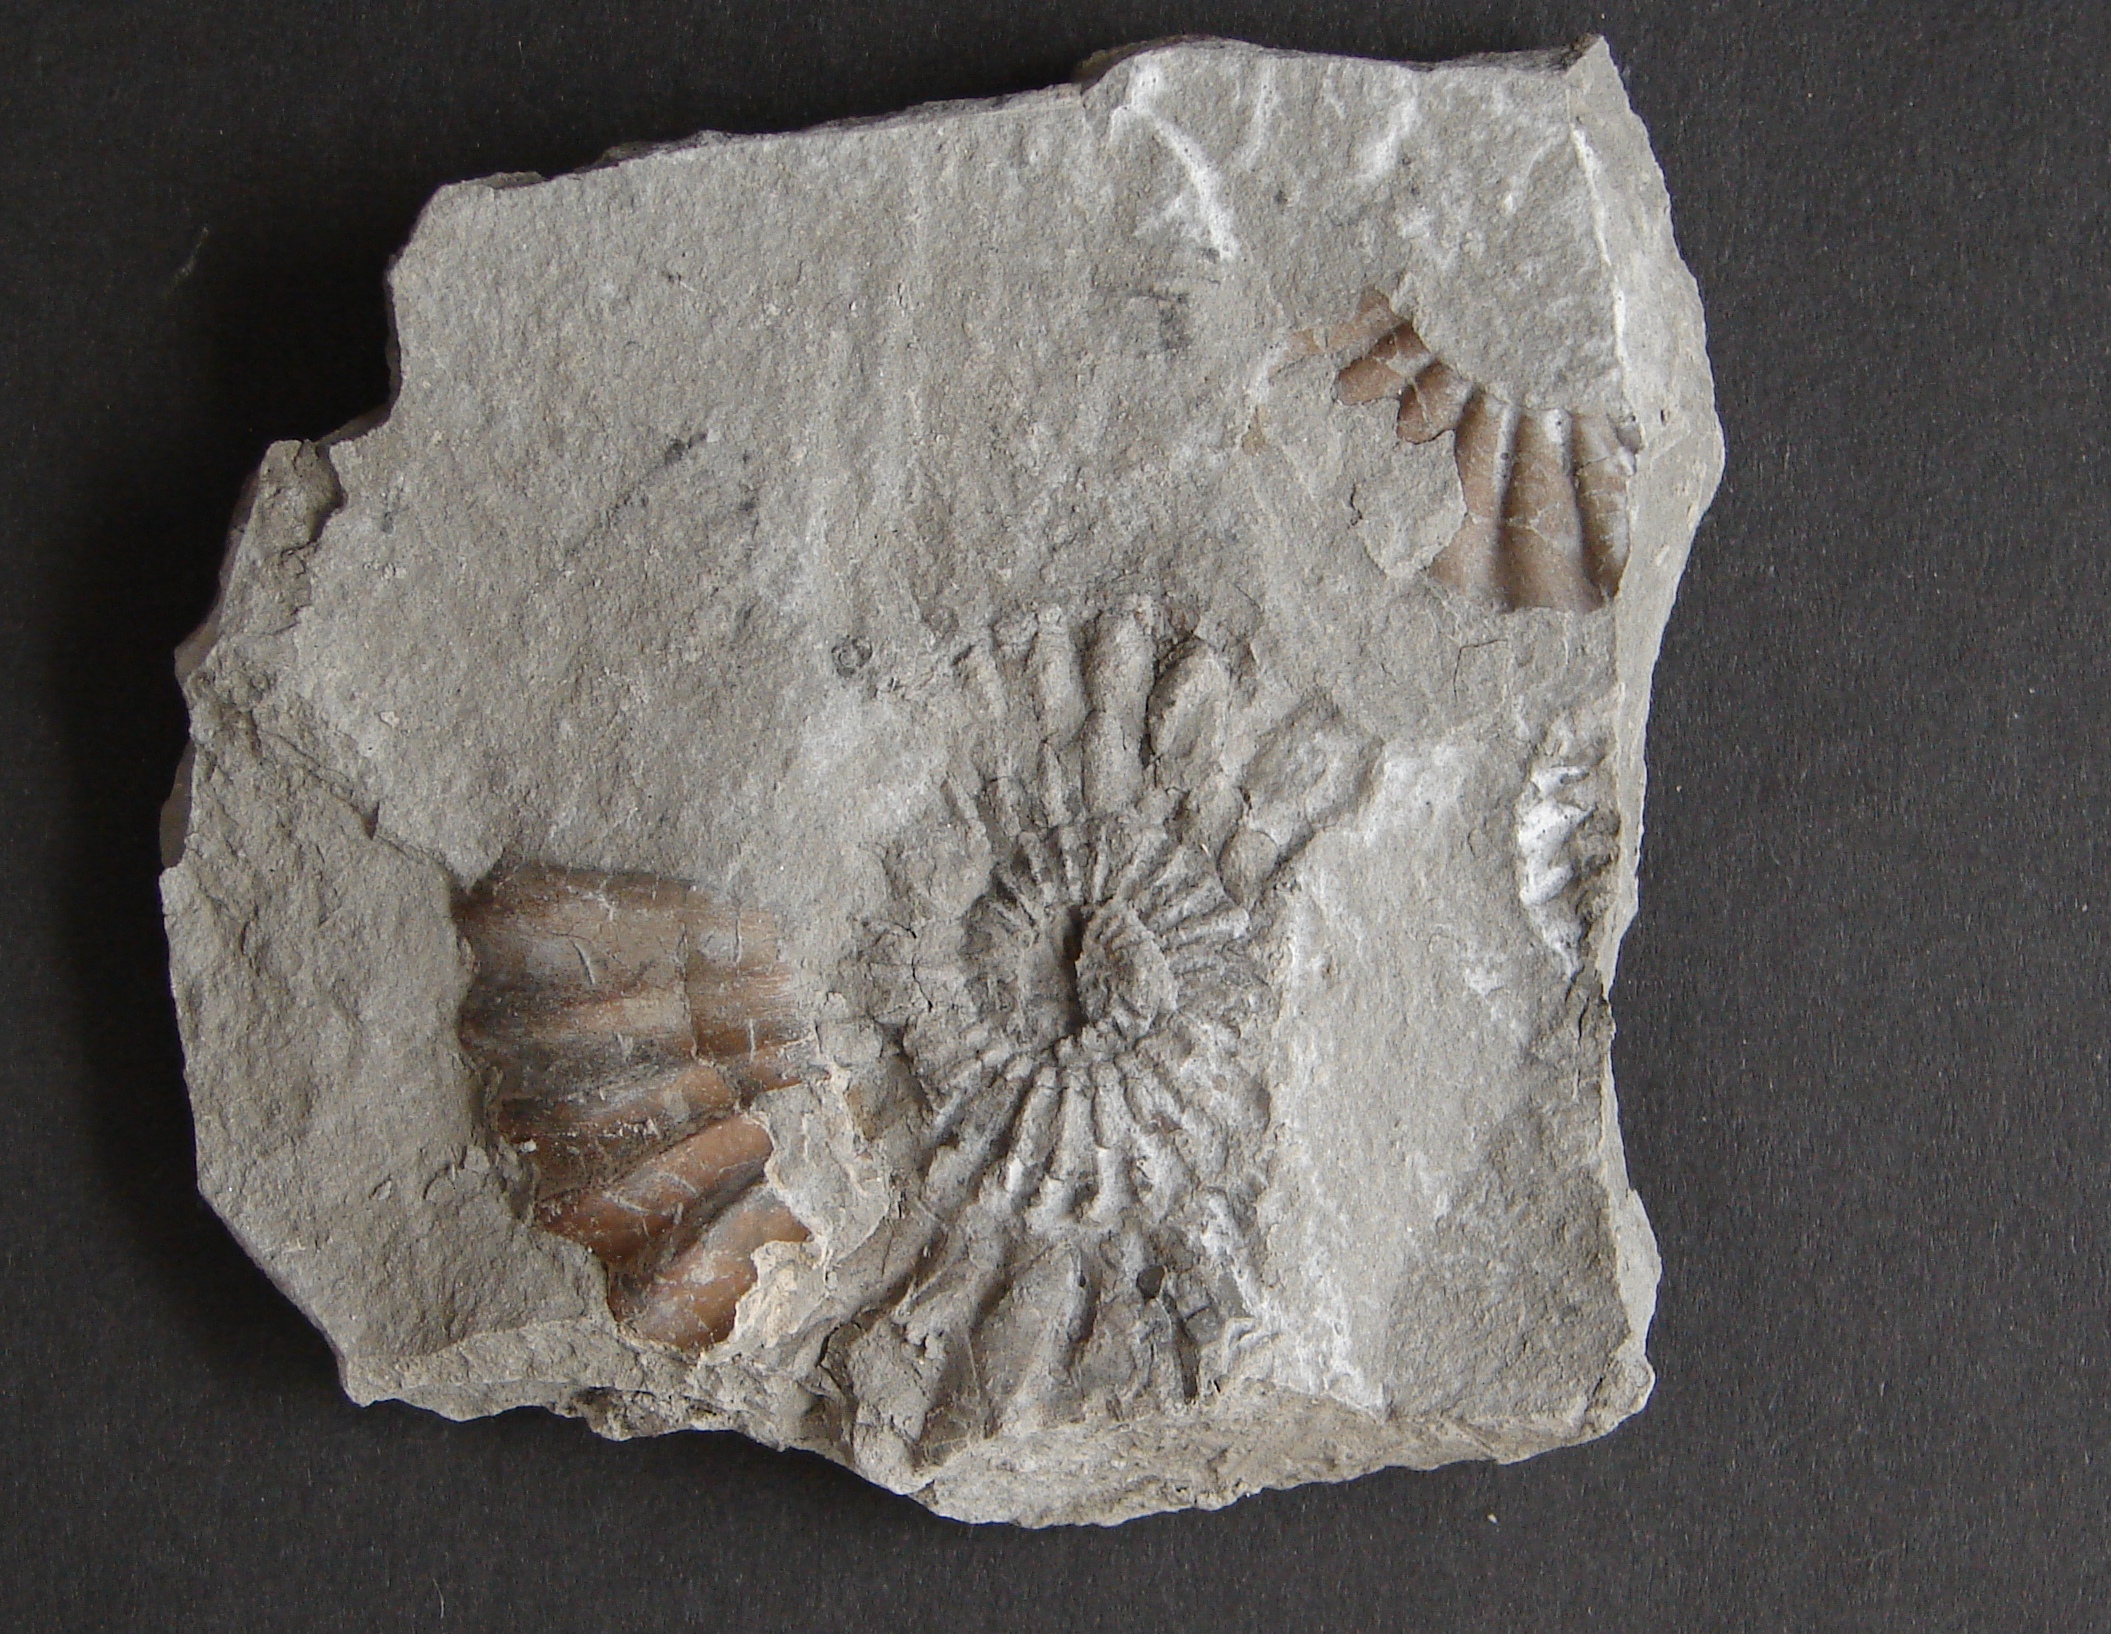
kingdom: Animalia
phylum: Mollusca
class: Cephalopoda
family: Liparoceratidae
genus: Aegoceras
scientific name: Aegoceras lataecosta
